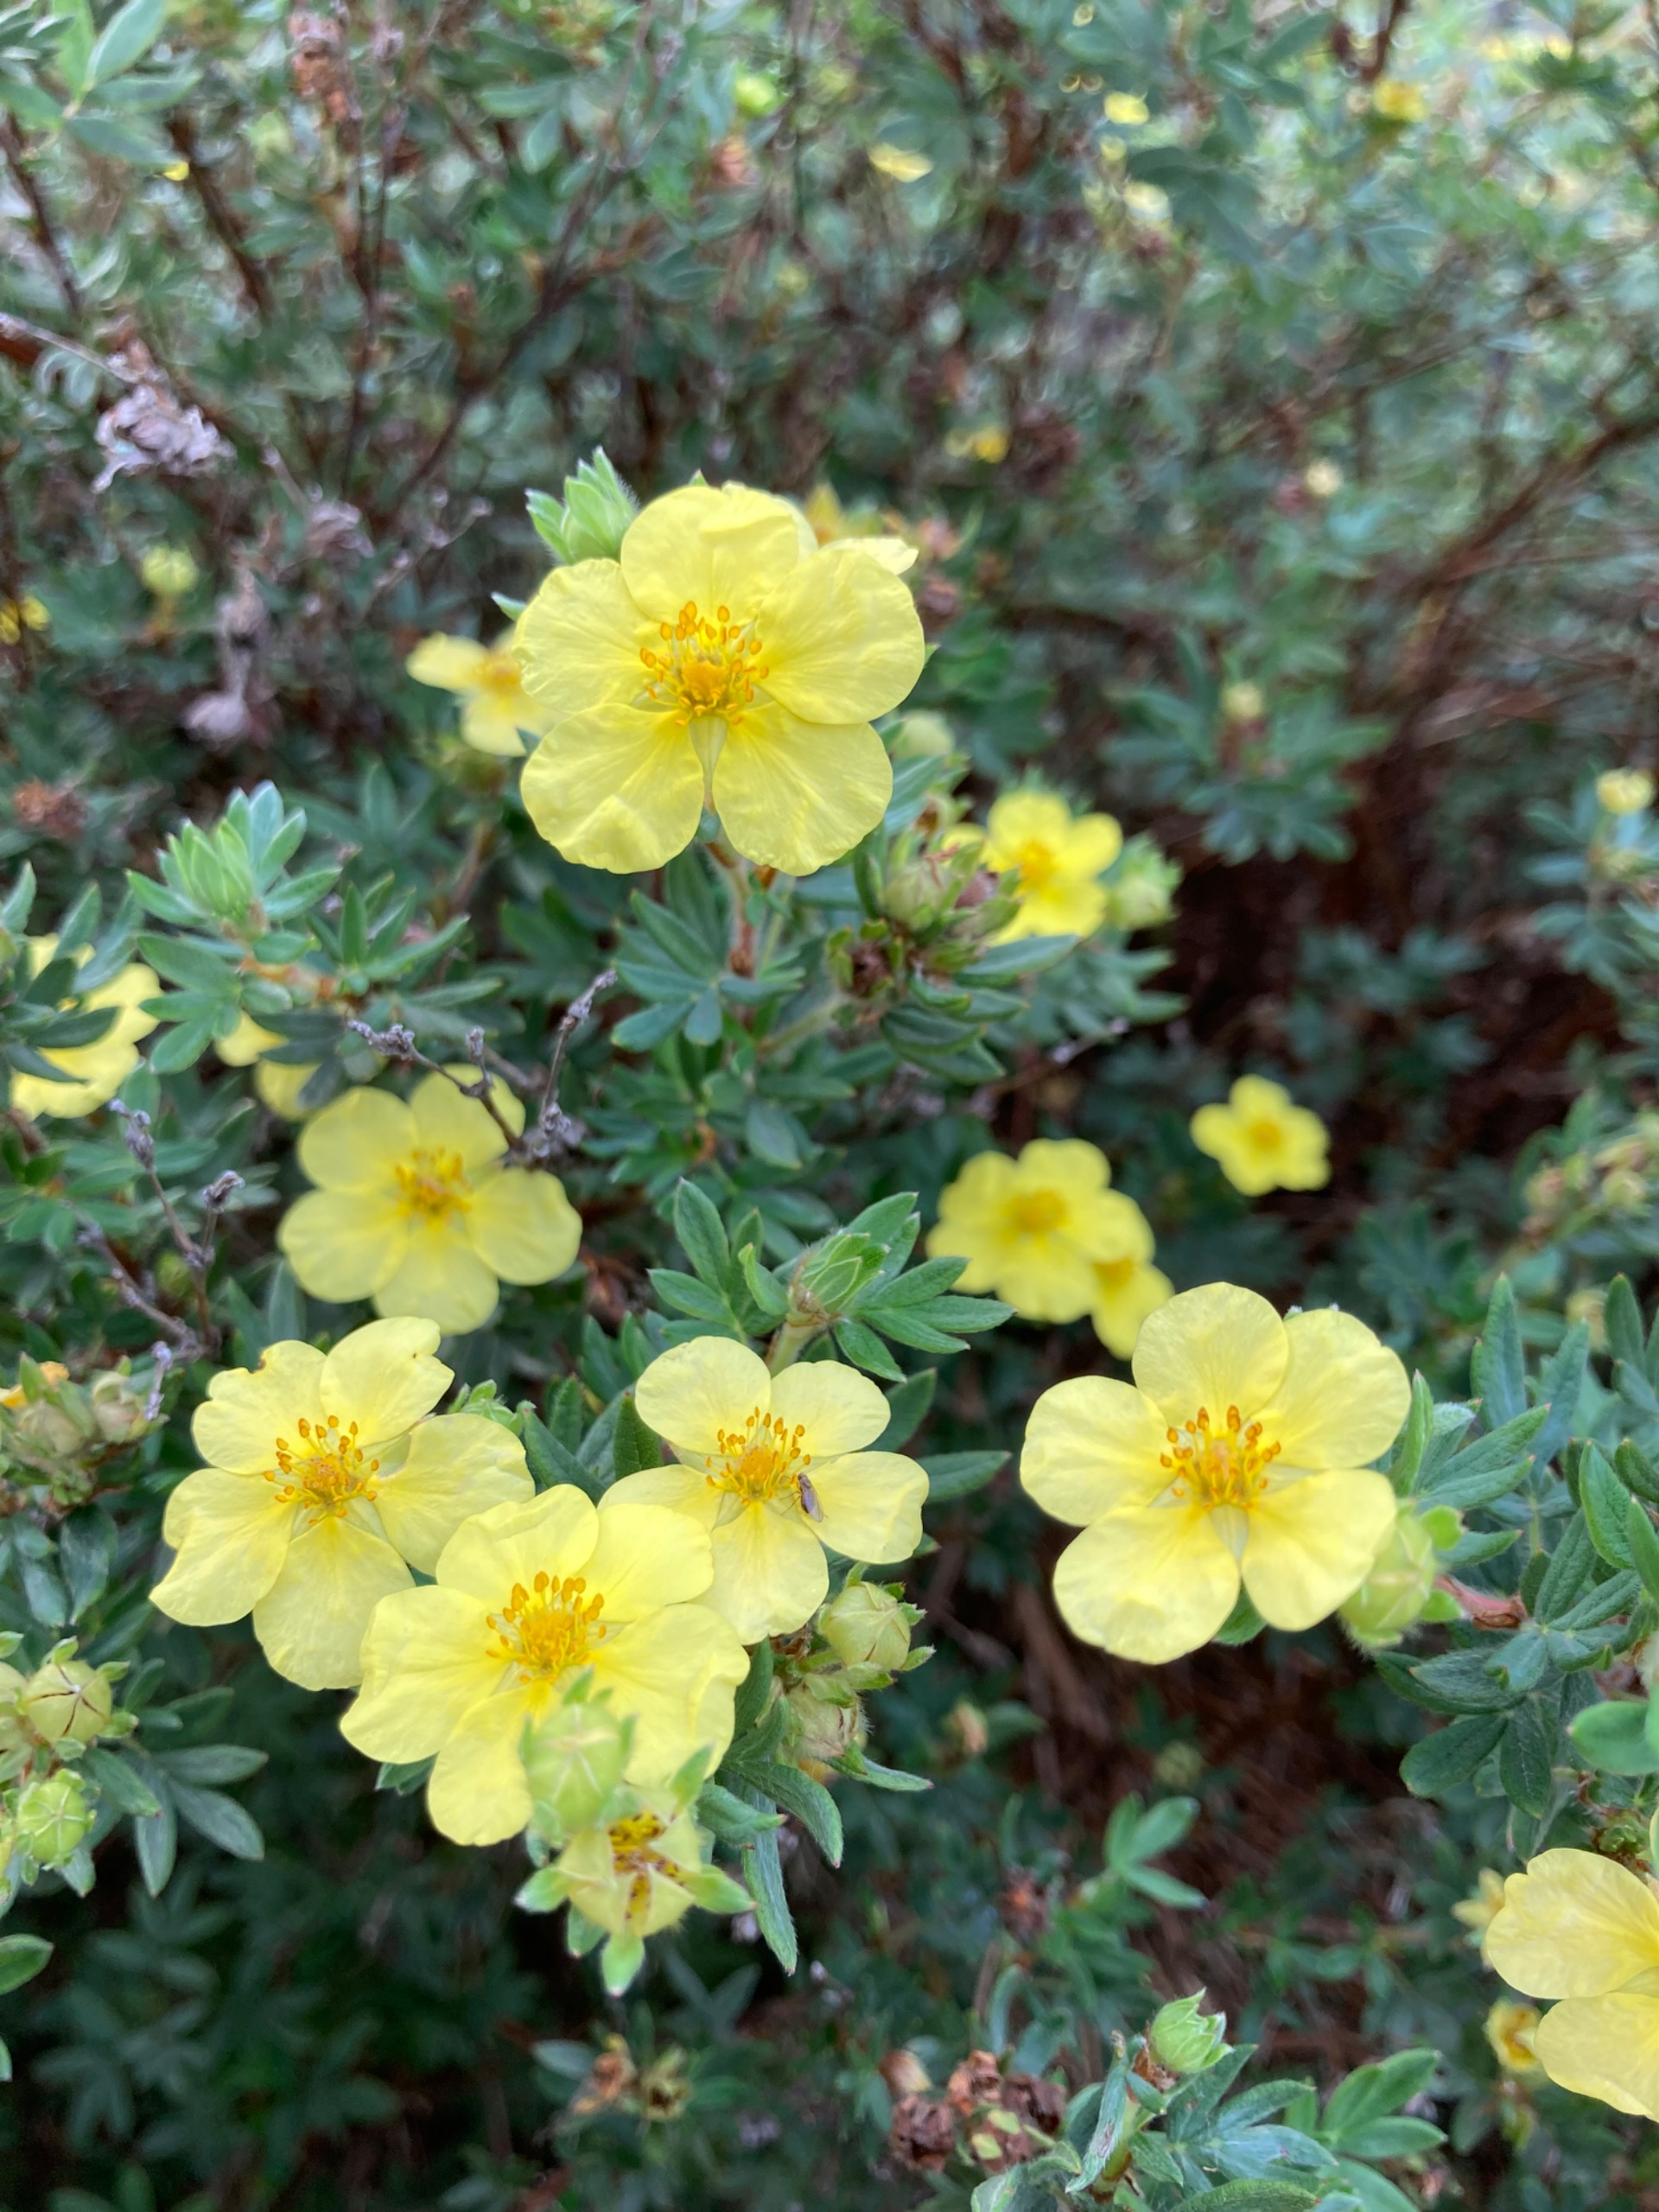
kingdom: Plantae
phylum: Tracheophyta
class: Magnoliopsida
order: Rosales
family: Rosaceae
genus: Dasiphora
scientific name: Dasiphora fruticosa
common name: Buskpotentil
